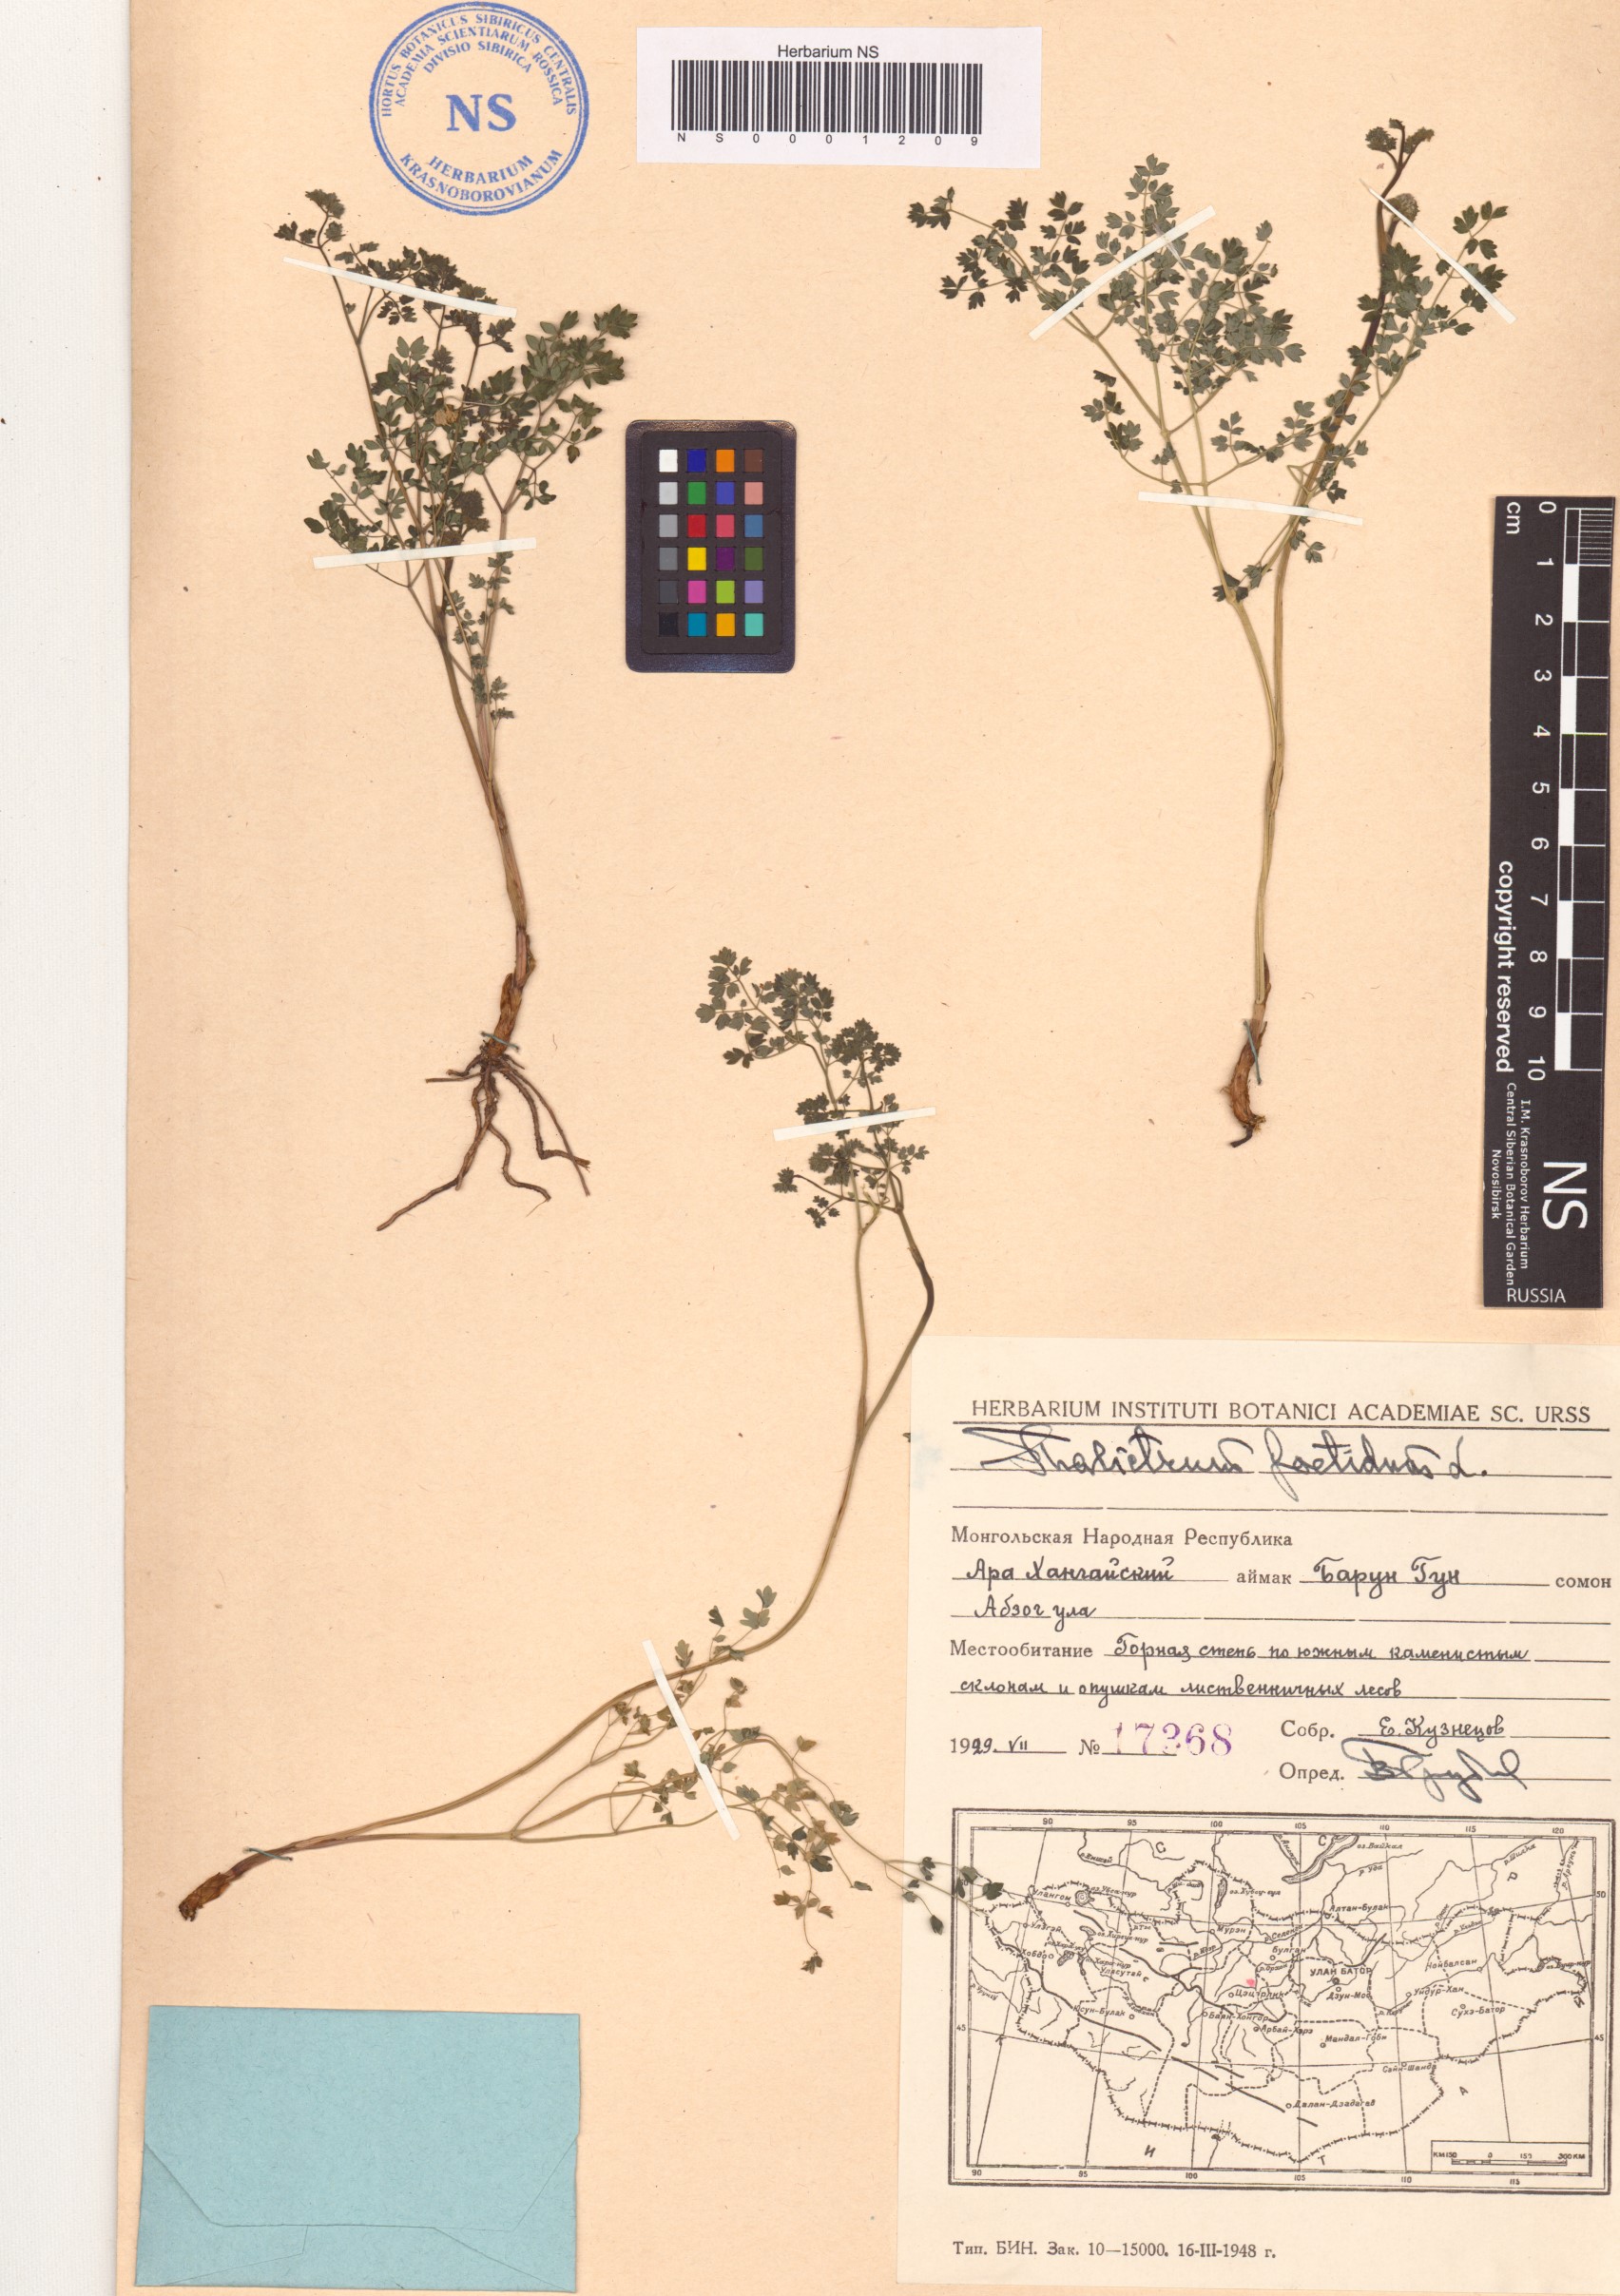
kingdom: Plantae
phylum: Tracheophyta
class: Magnoliopsida
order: Ranunculales
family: Ranunculaceae
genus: Thalictrum
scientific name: Thalictrum foetidum
